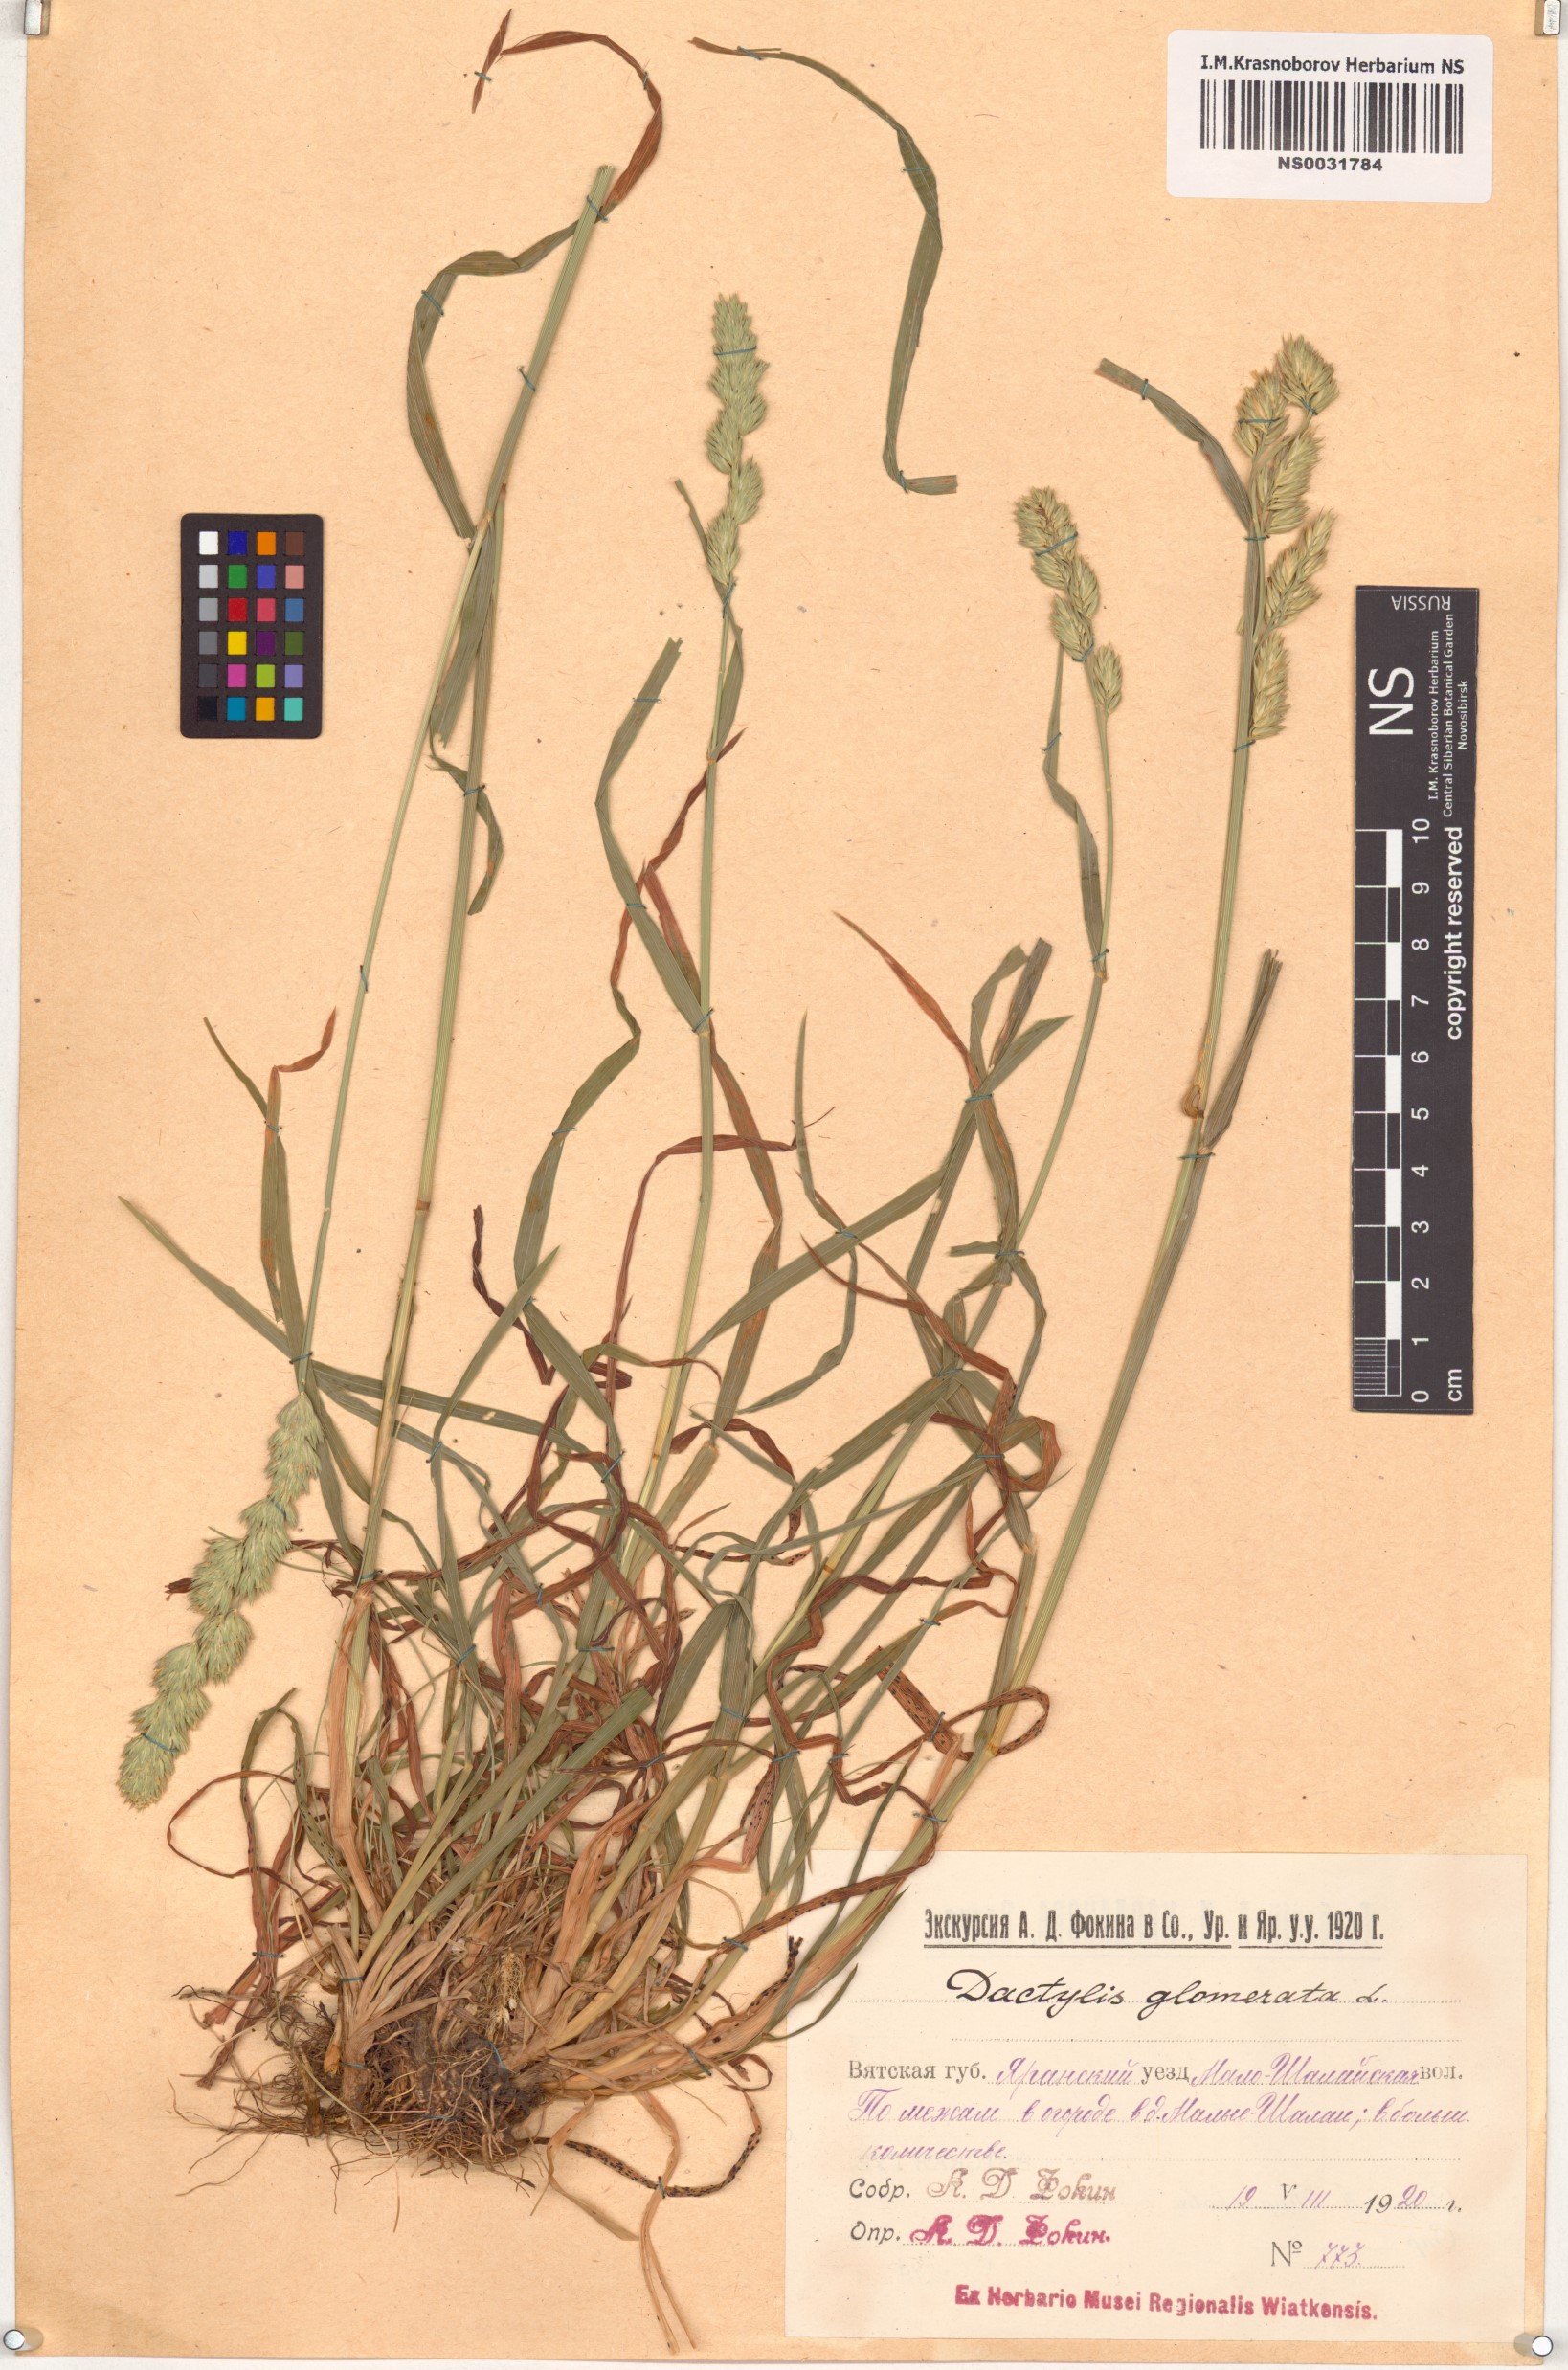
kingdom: Plantae
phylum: Tracheophyta
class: Liliopsida
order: Poales
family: Poaceae
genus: Dactylis
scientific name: Dactylis glomerata
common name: Orchardgrass
